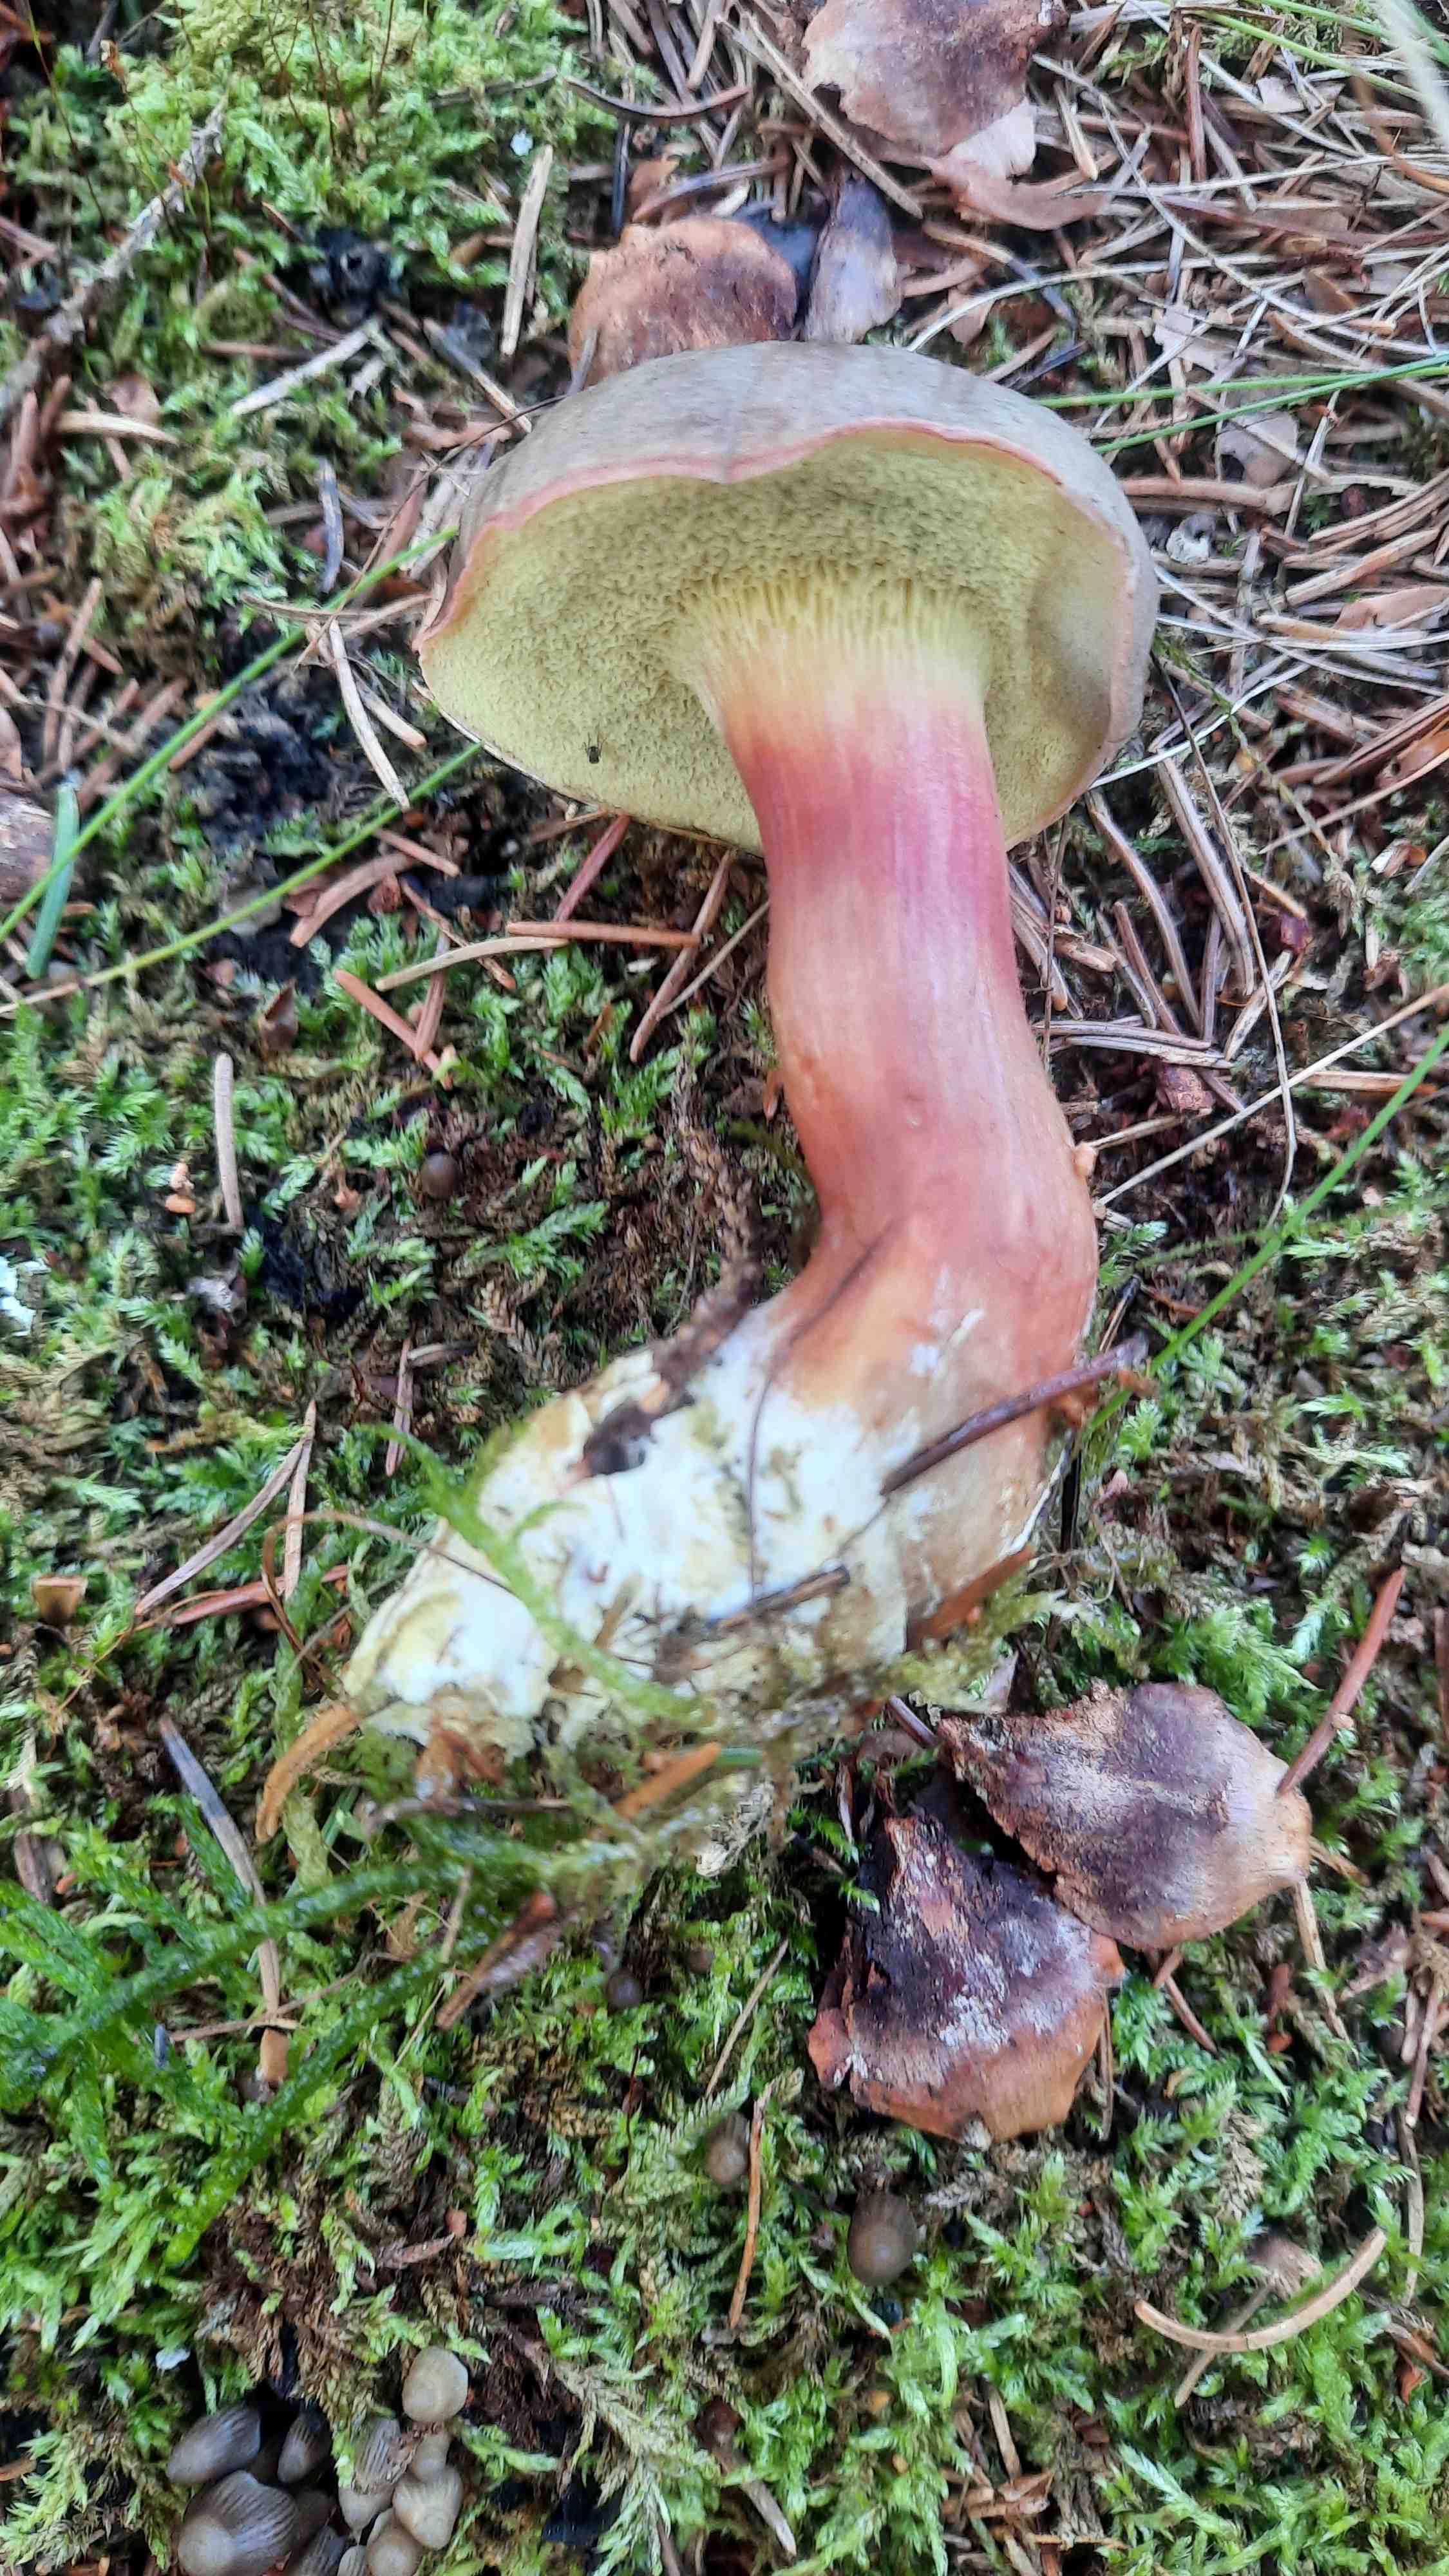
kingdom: Fungi
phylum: Basidiomycota
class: Agaricomycetes
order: Boletales
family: Boletaceae
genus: Xerocomellus
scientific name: Xerocomellus
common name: dværgrørhat
